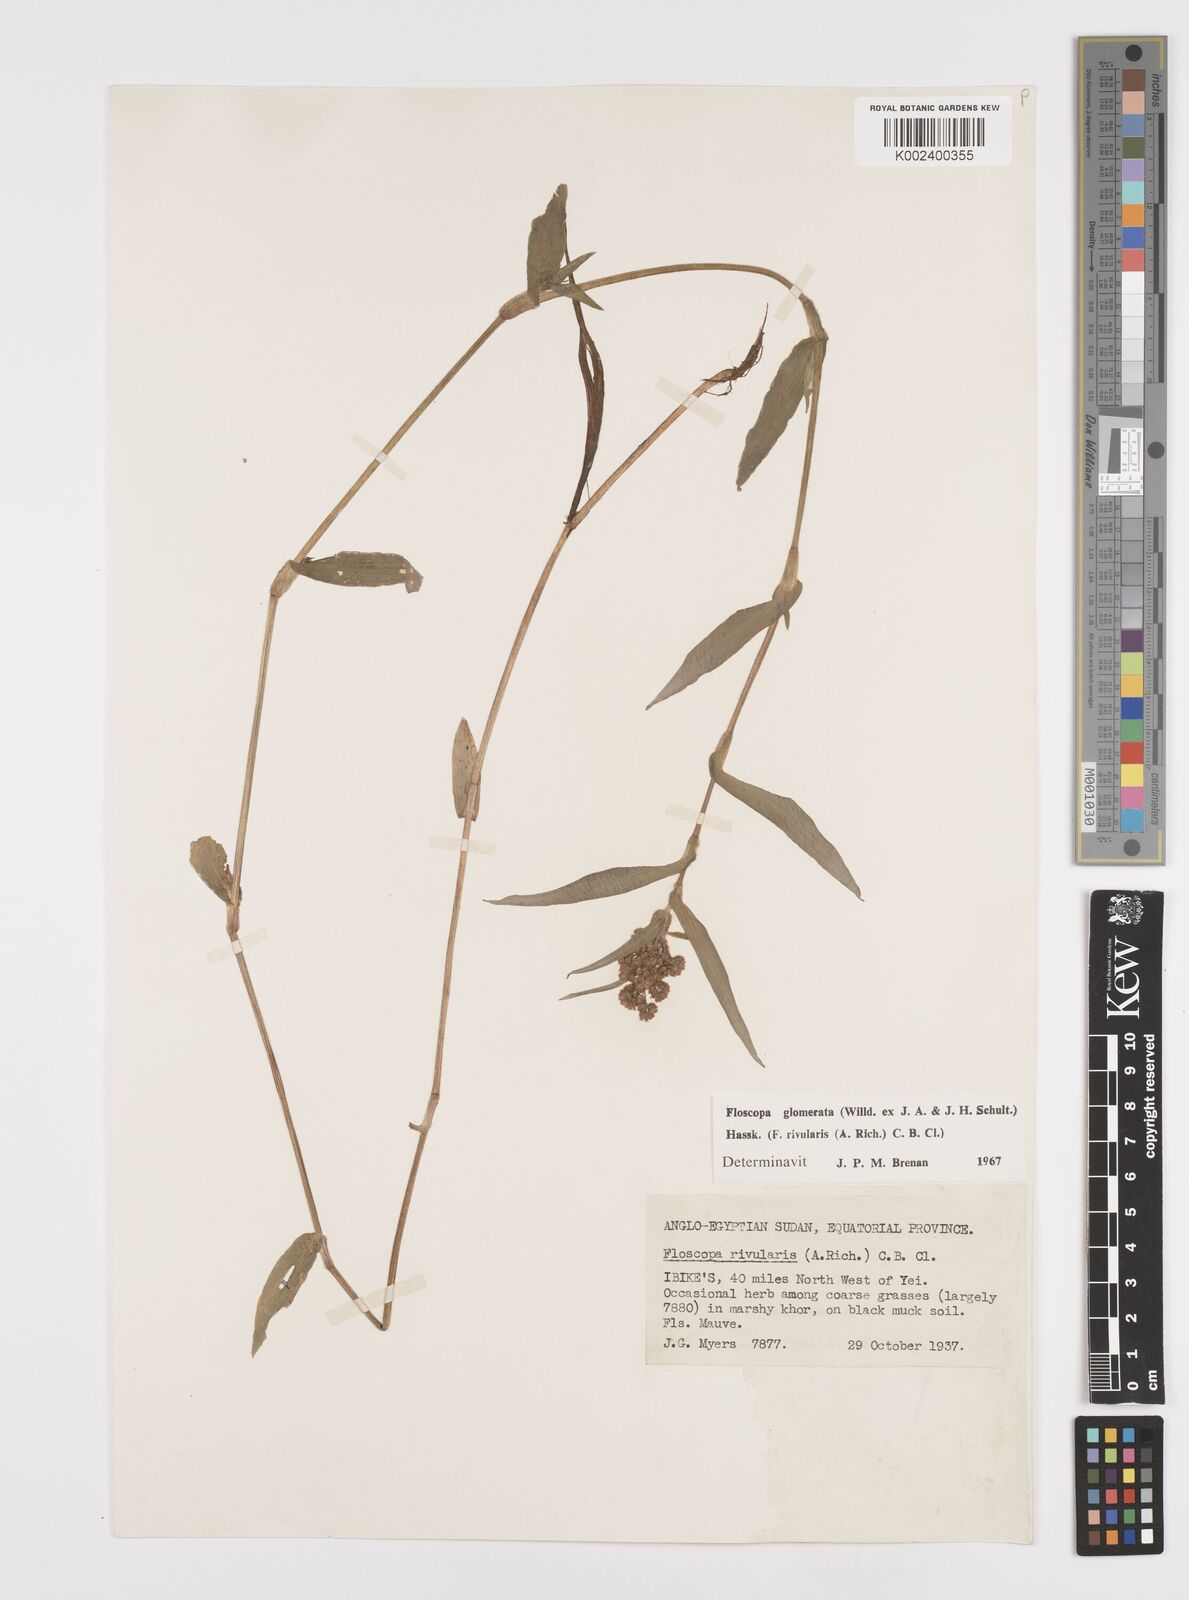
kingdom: Plantae
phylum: Tracheophyta
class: Liliopsida
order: Commelinales
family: Commelinaceae
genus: Floscopa
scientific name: Floscopa glomerata
